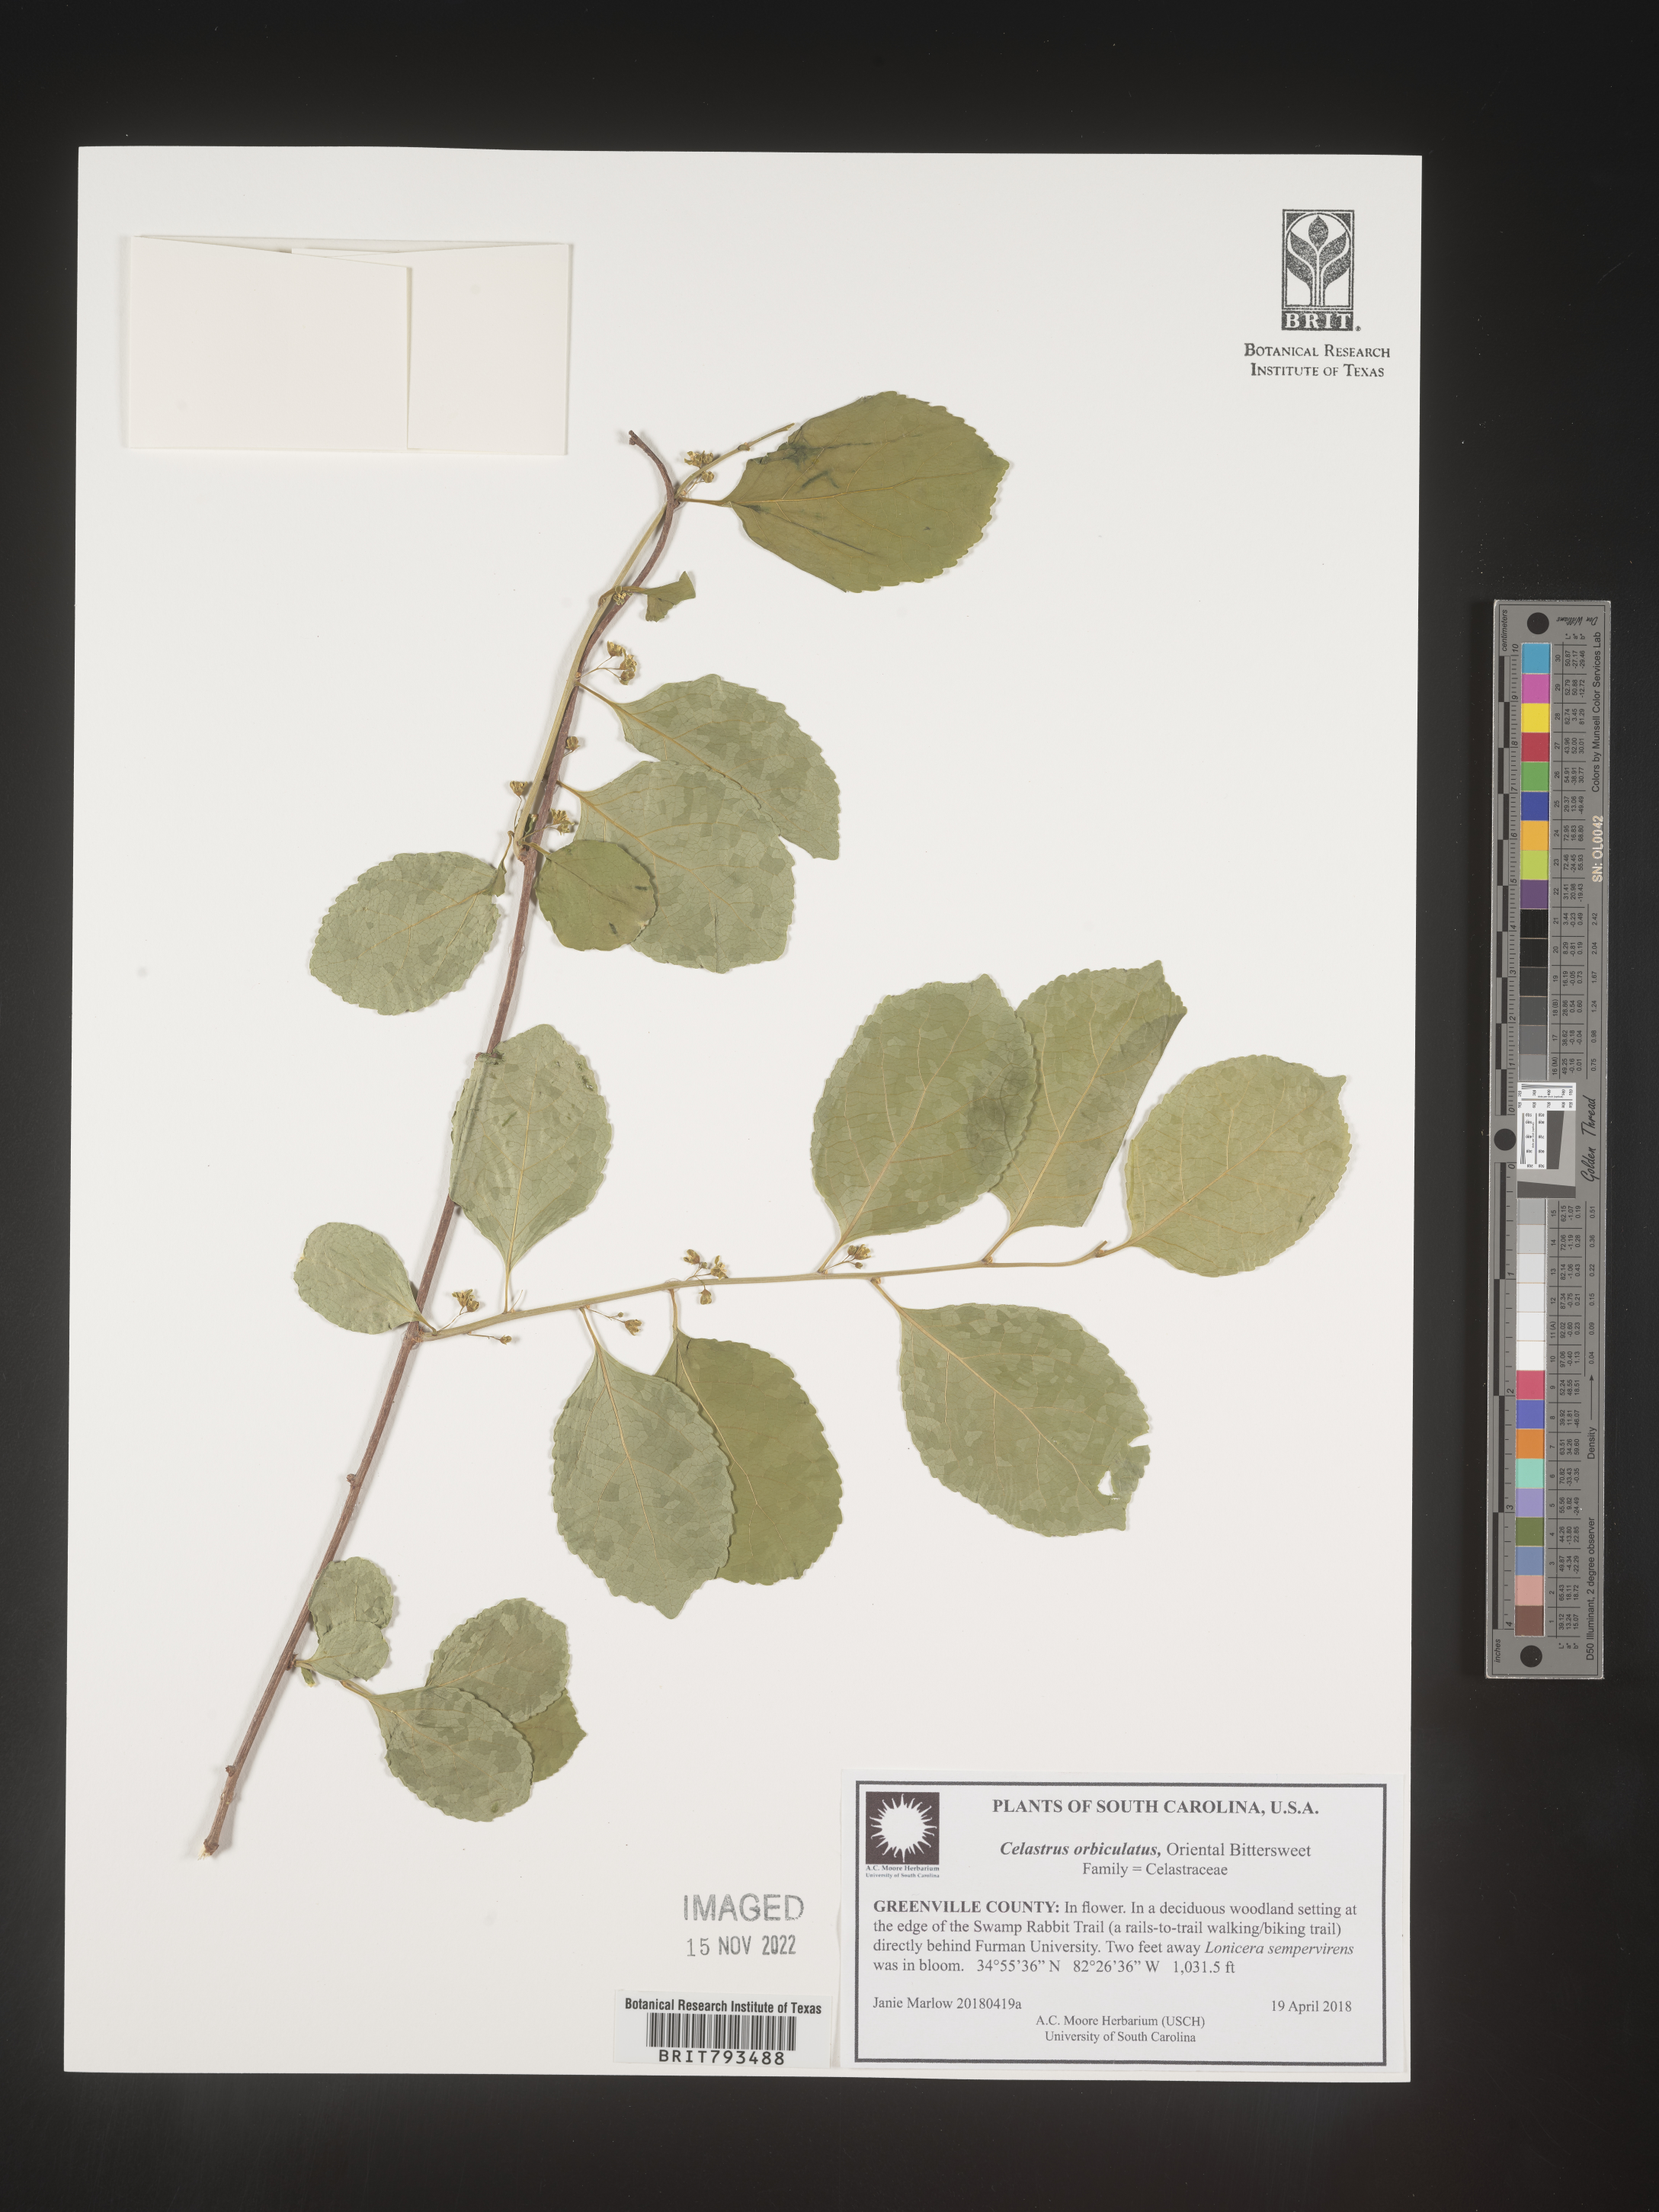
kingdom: Plantae
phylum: Tracheophyta
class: Magnoliopsida
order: Celastrales
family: Celastraceae
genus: Celastrus
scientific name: Celastrus orbiculatus
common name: Oriental bittersweet
